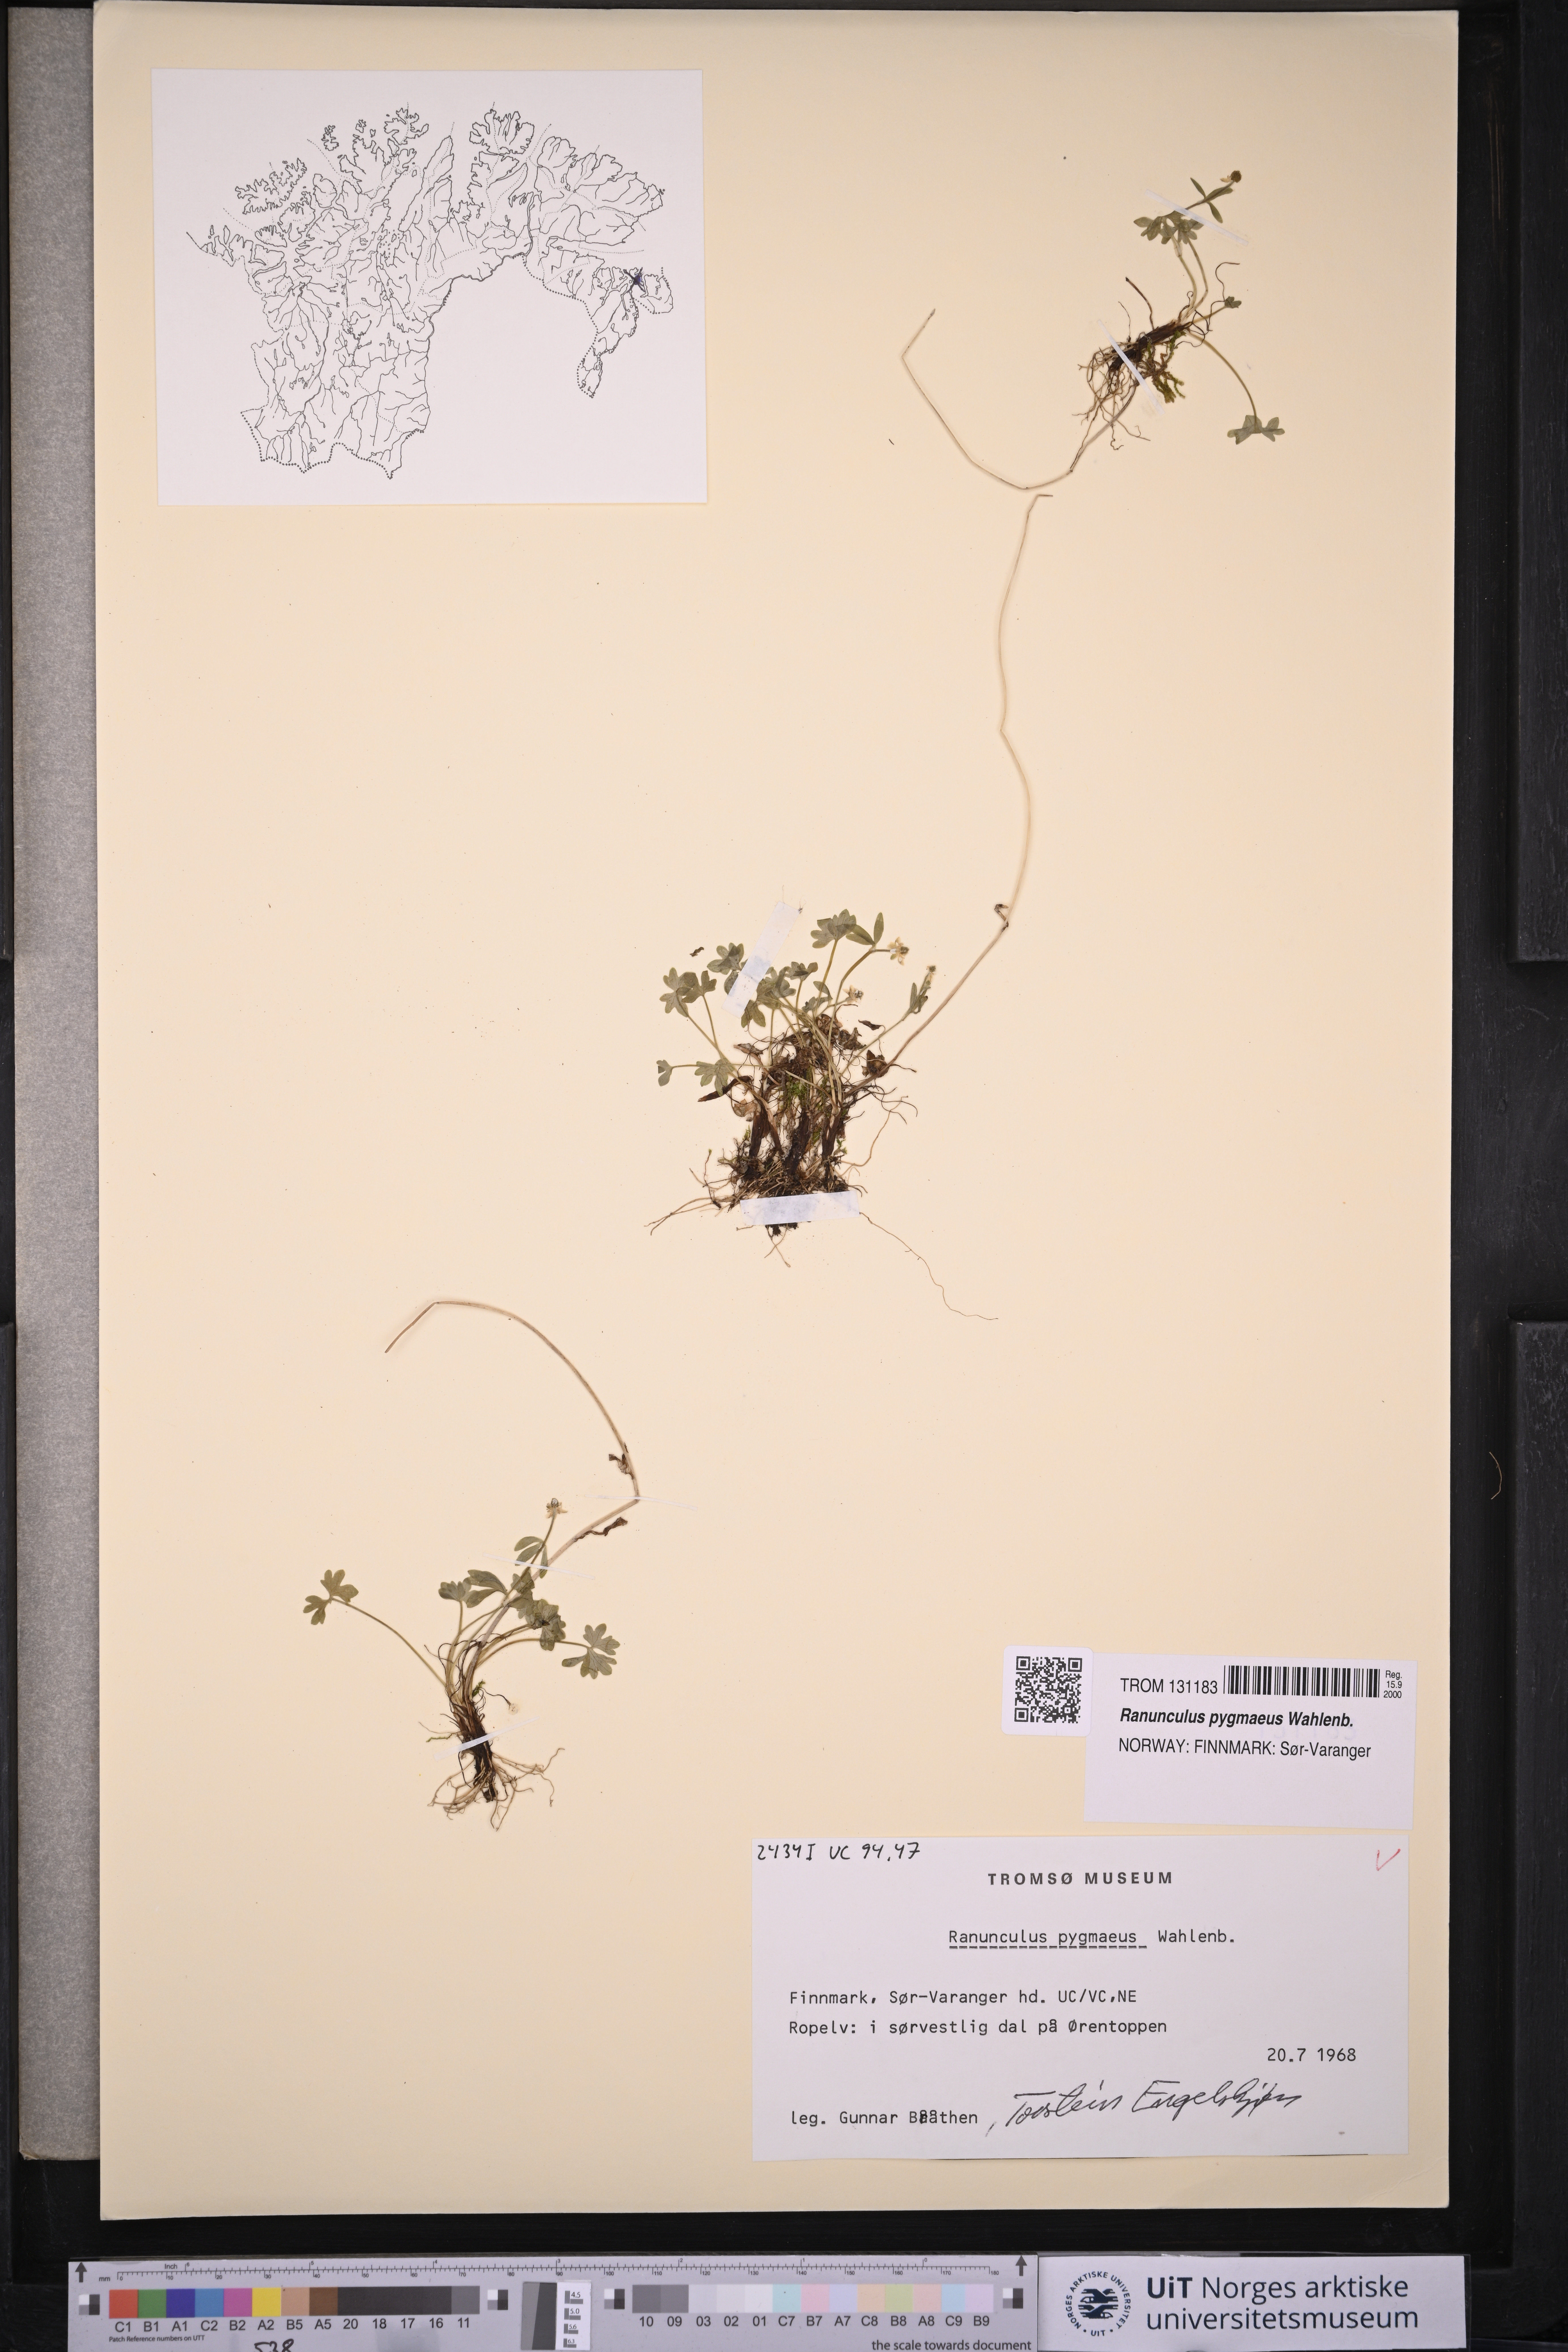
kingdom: Plantae
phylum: Tracheophyta
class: Magnoliopsida
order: Ranunculales
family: Ranunculaceae
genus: Ranunculus
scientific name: Ranunculus pygmaeus
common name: Dwarf buttercup
